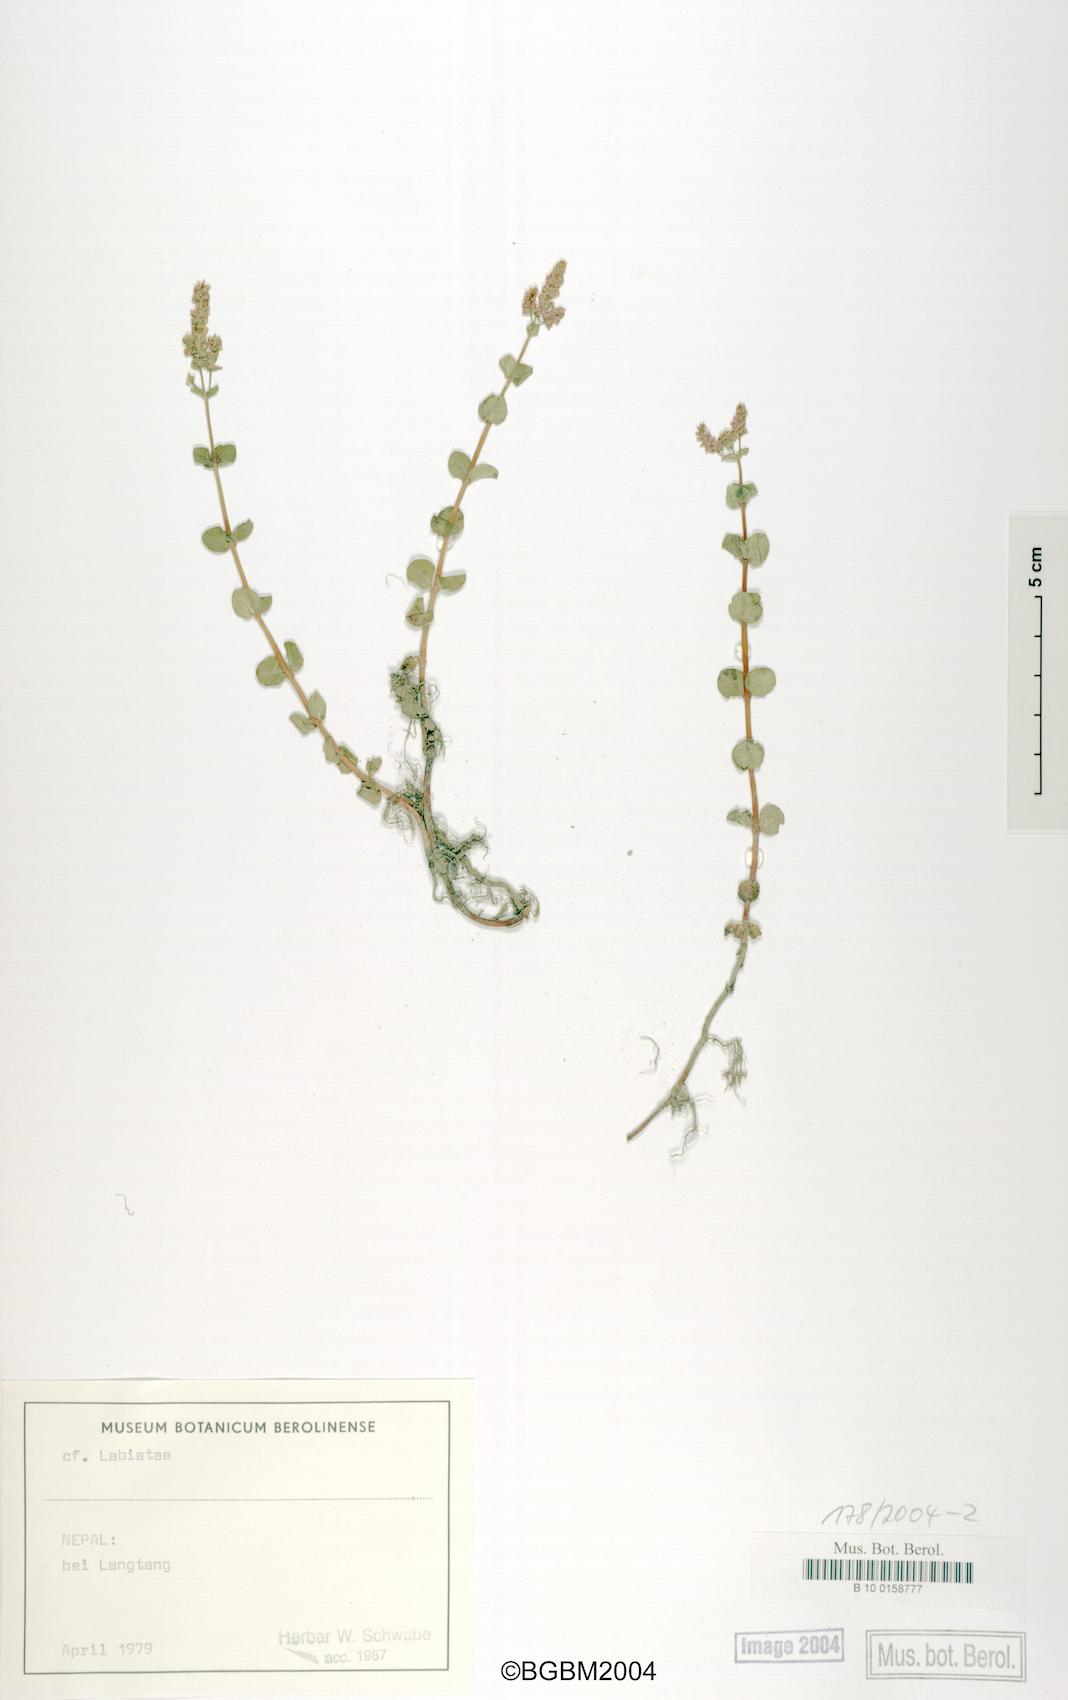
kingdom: Plantae
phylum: Tracheophyta
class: Magnoliopsida
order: Myrtales
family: Lythraceae
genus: Rotala
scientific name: Rotala
